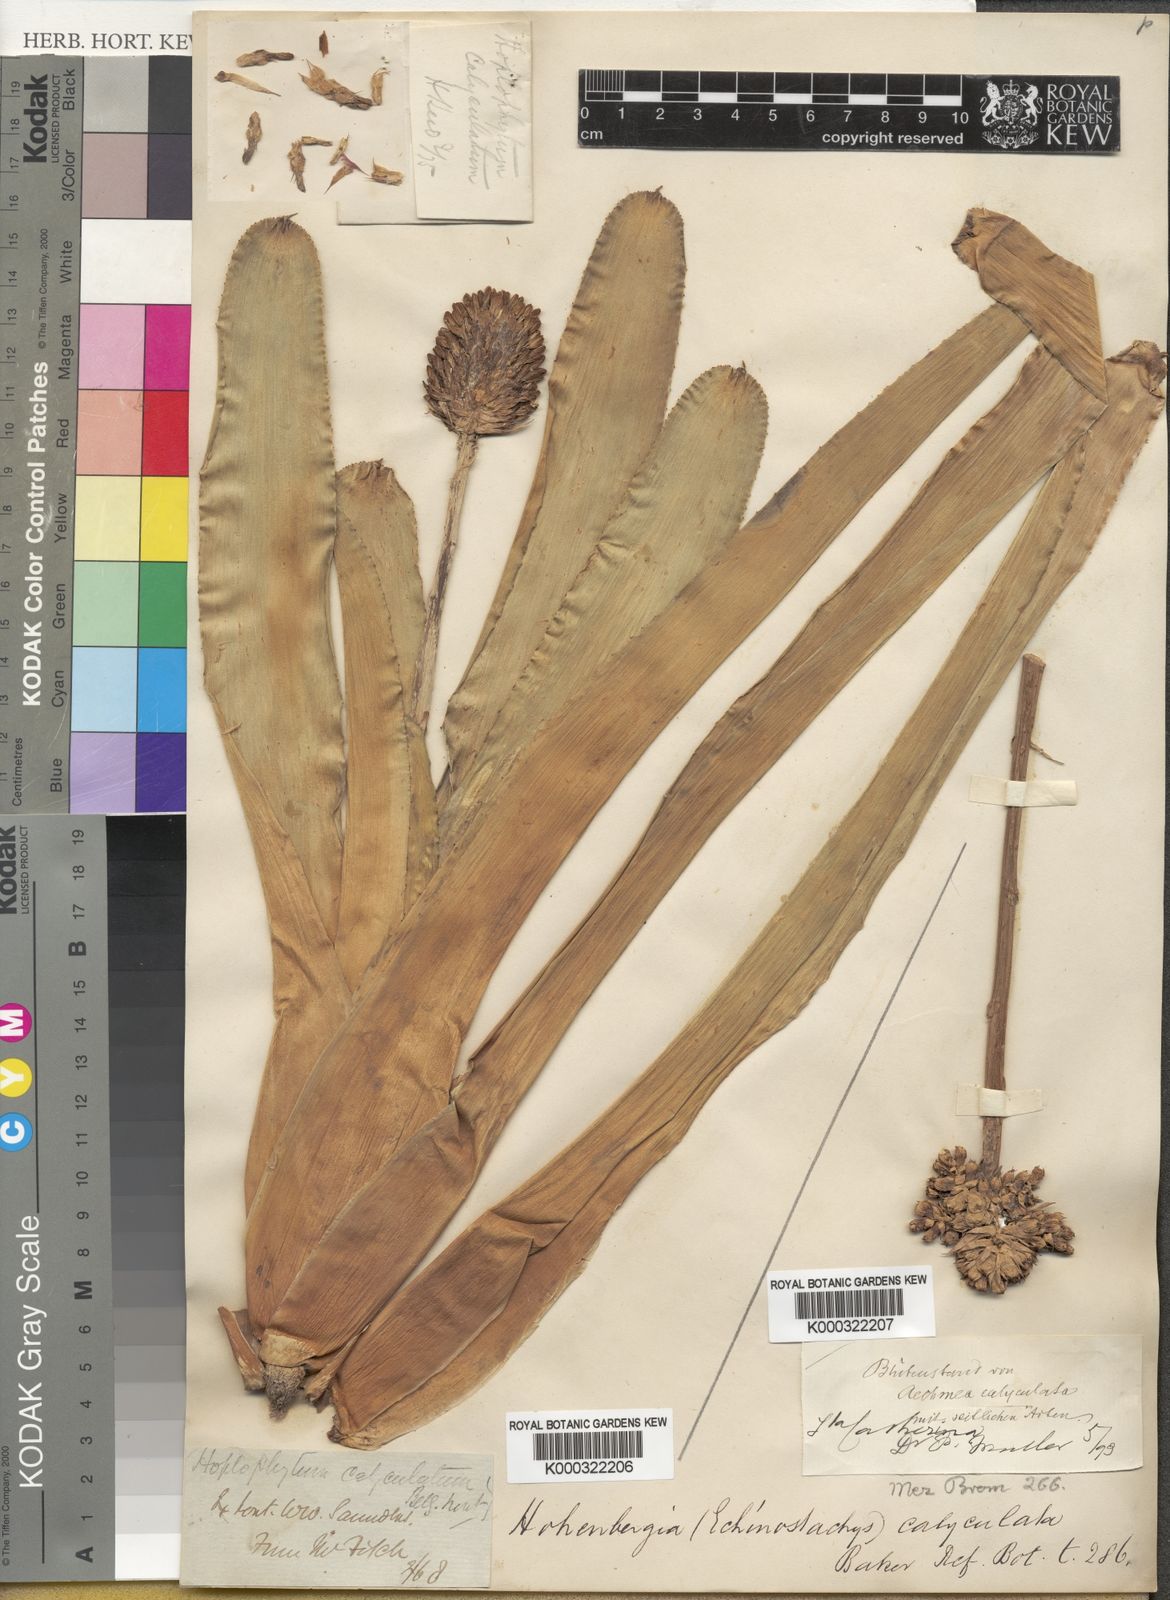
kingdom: Plantae
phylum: Tracheophyta
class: Liliopsida
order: Poales
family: Bromeliaceae
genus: Aechmea
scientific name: Aechmea calyculata
